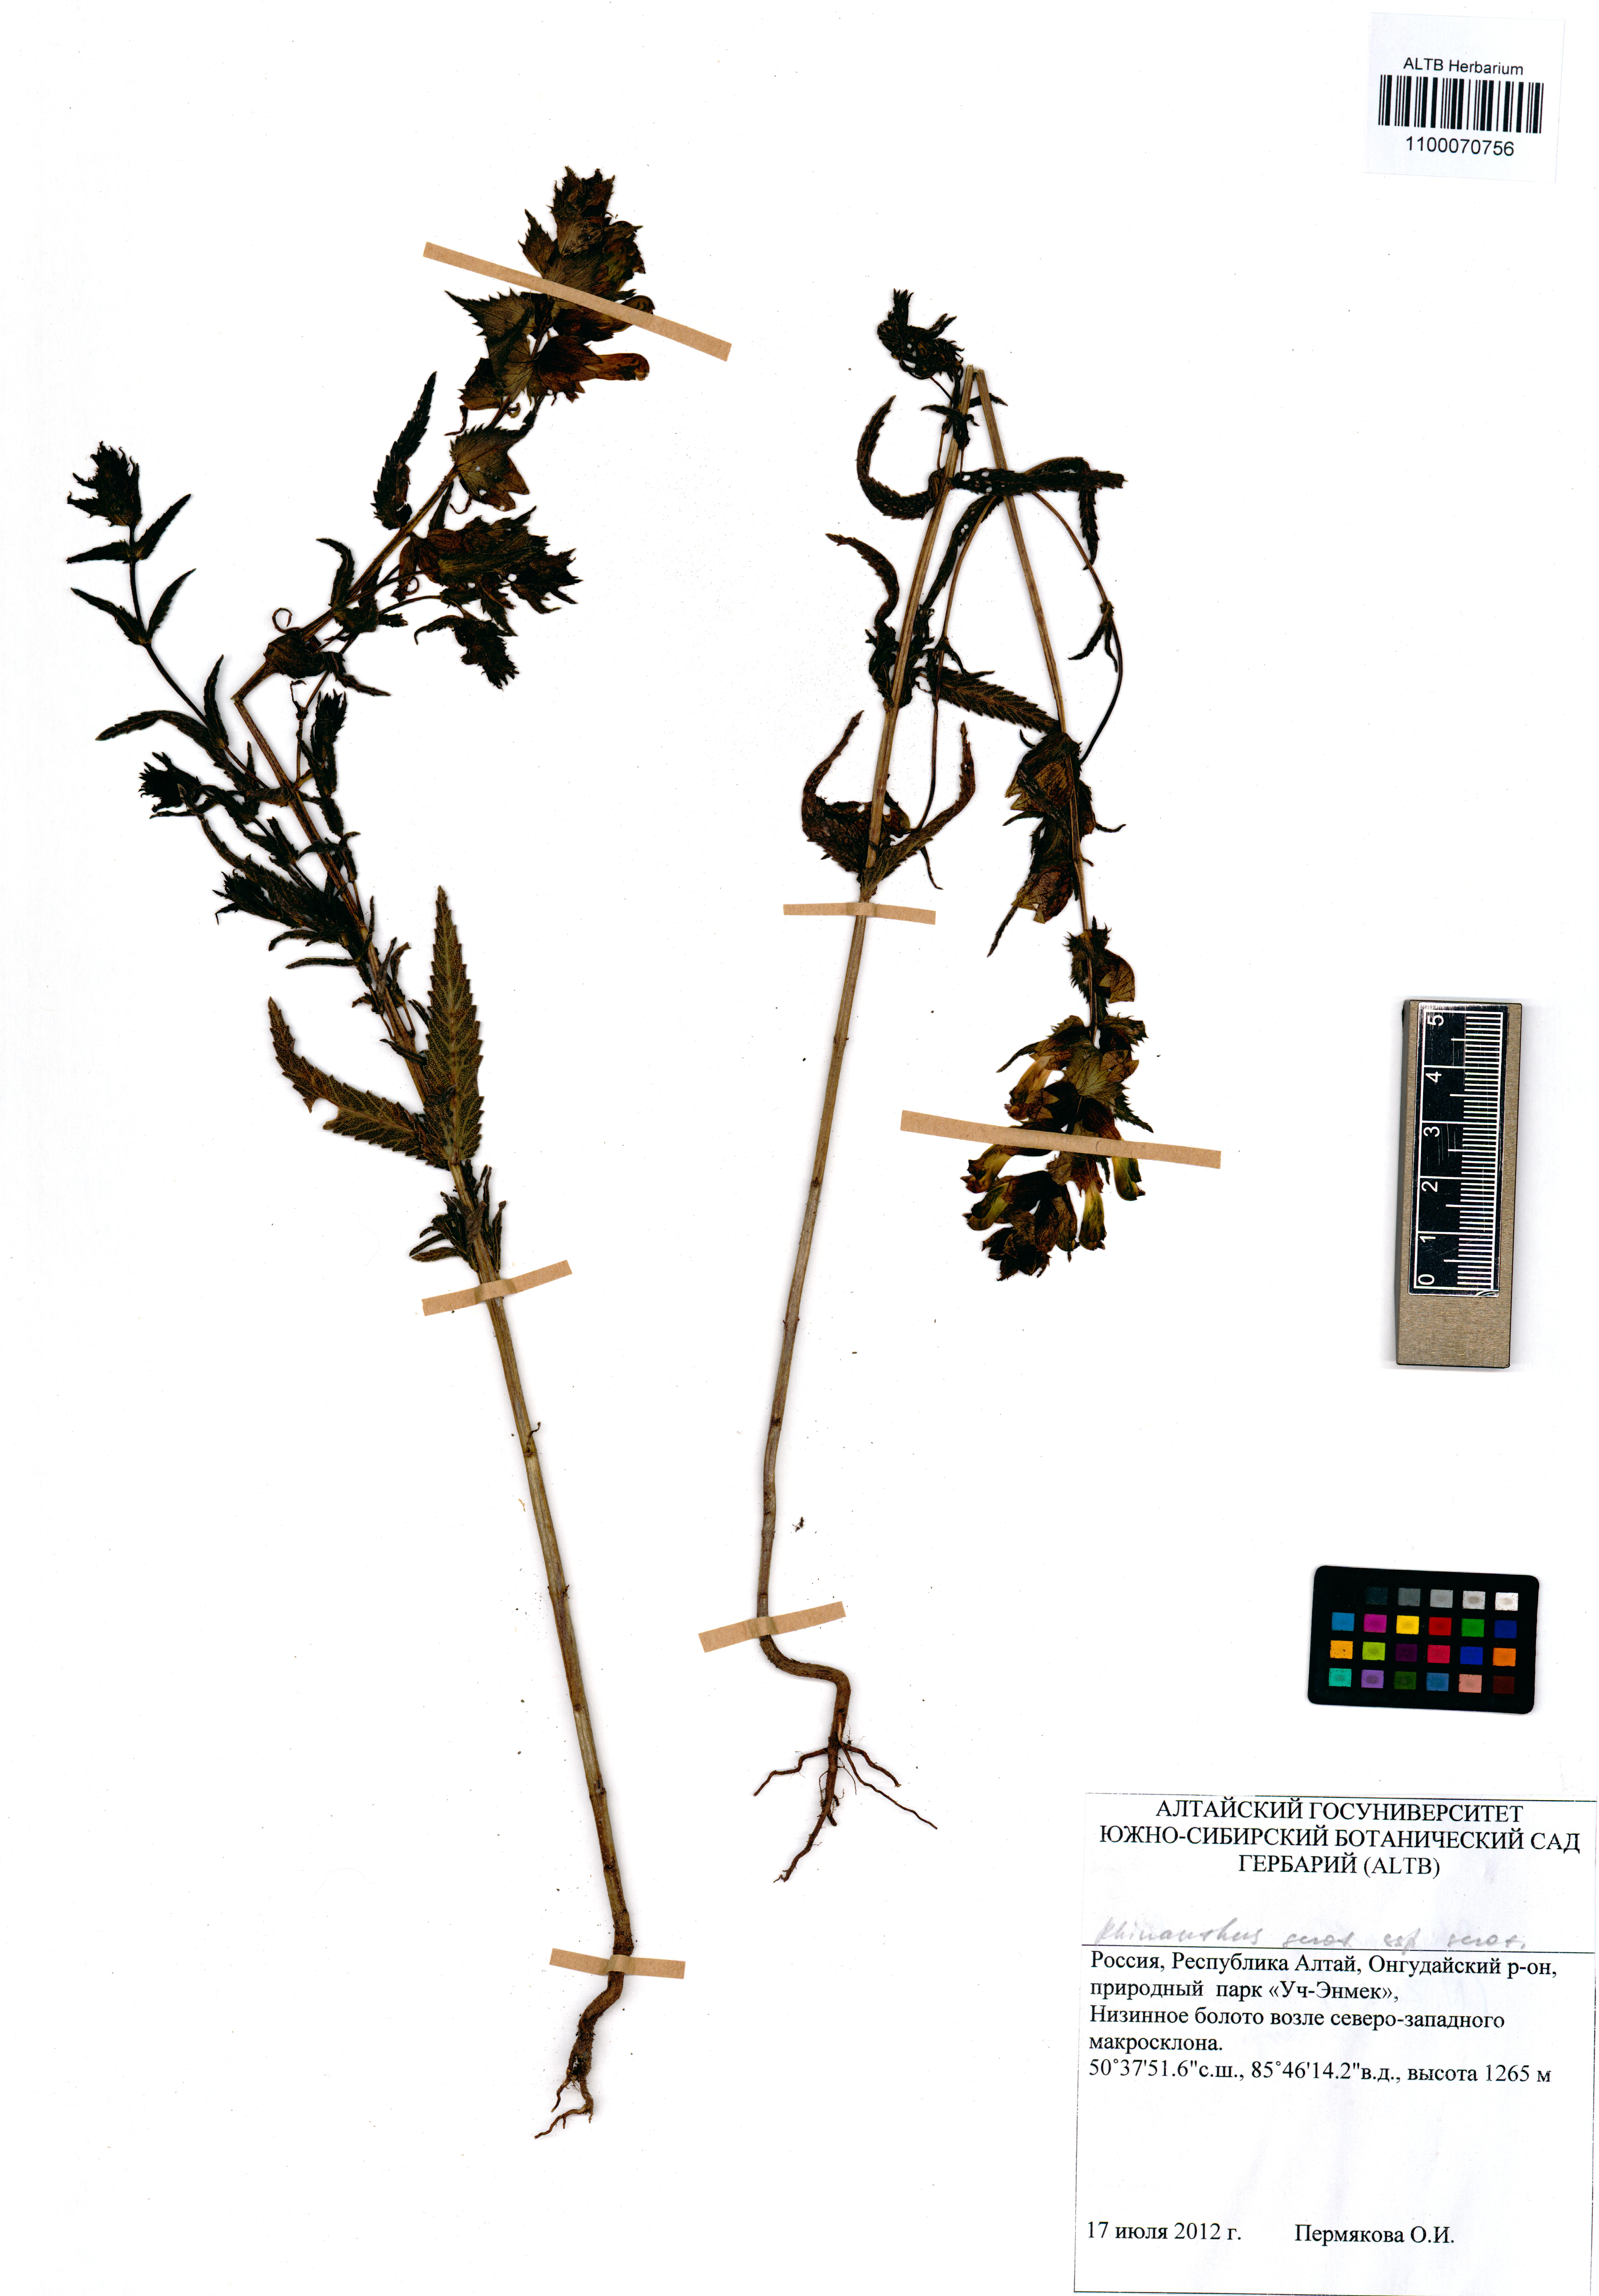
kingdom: Plantae
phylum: Tracheophyta
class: Magnoliopsida
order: Lamiales
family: Orobanchaceae
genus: Rhinanthus
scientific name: Rhinanthus serotinus
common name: Late-flowering yellow rattle
